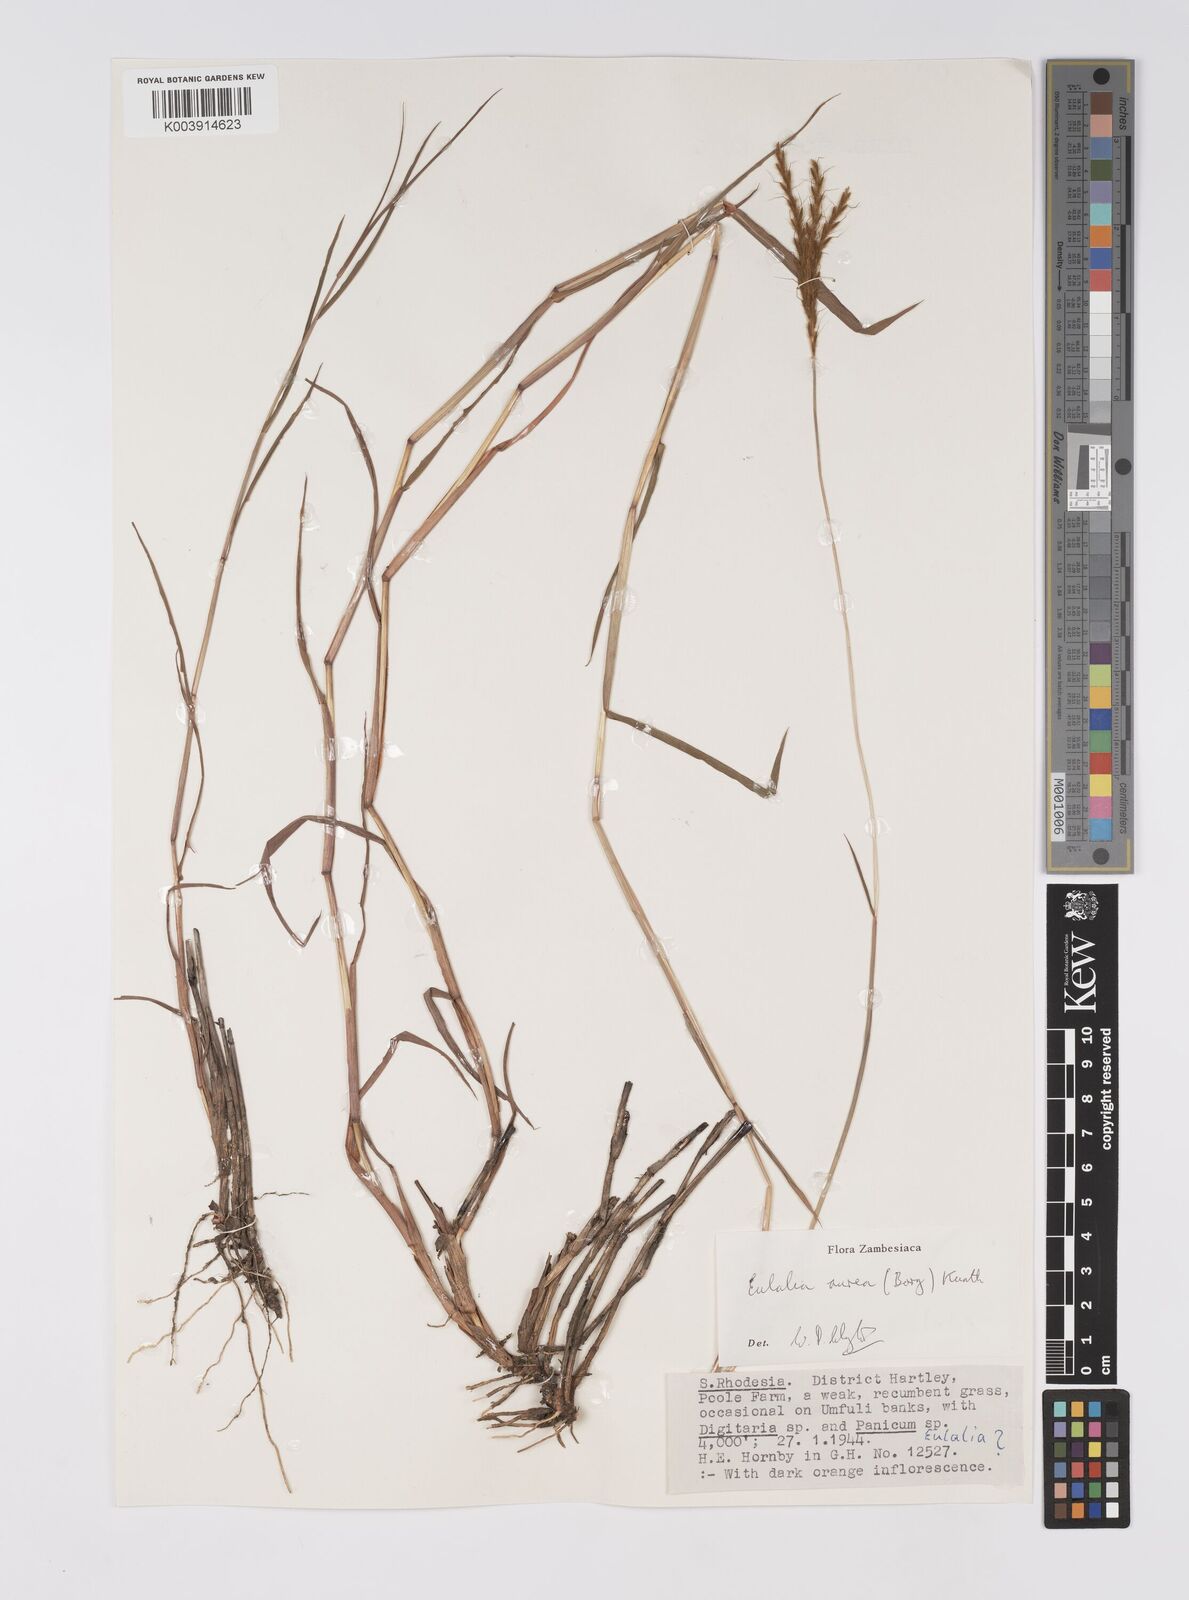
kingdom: Plantae
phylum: Tracheophyta
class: Liliopsida
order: Poales
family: Poaceae
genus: Eulalia
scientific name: Eulalia aurea
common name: Silky browntop
